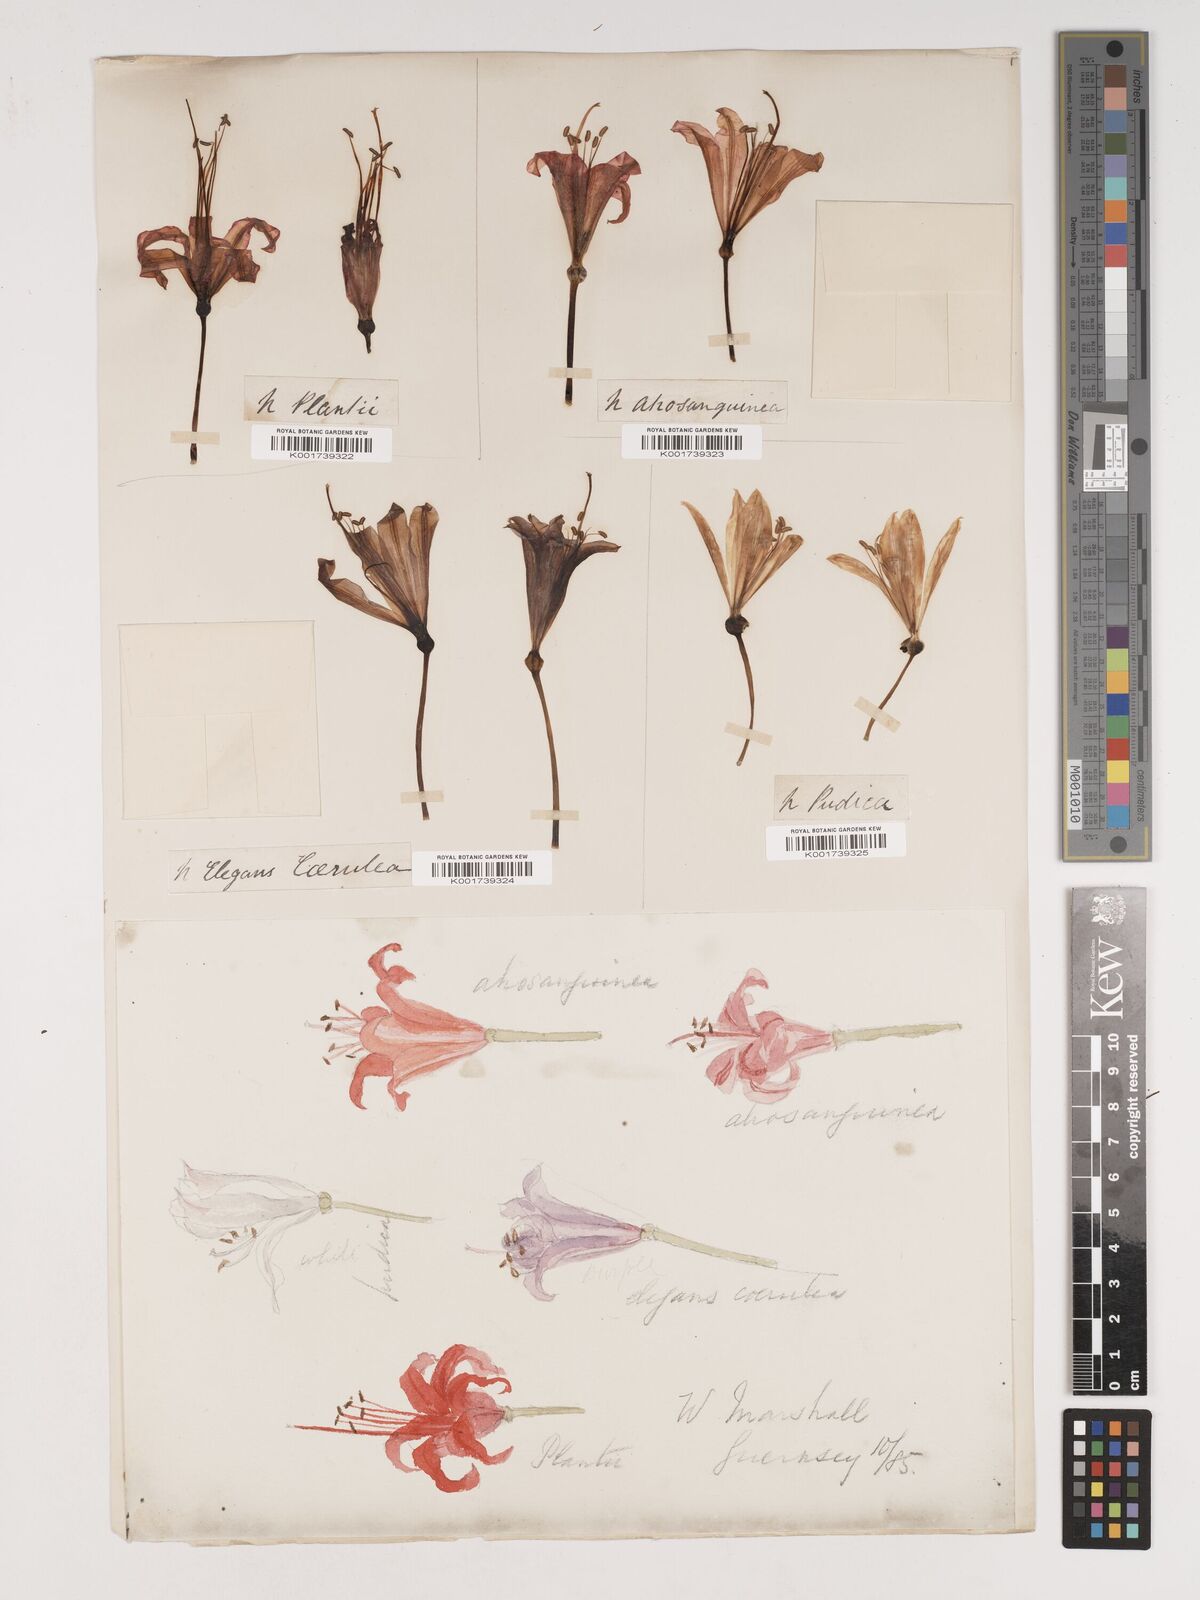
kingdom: Plantae
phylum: Tracheophyta
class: Liliopsida
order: Asparagales
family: Amaryllidaceae
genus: Nerine
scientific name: Nerine sarniensis
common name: Guernsey-lily
